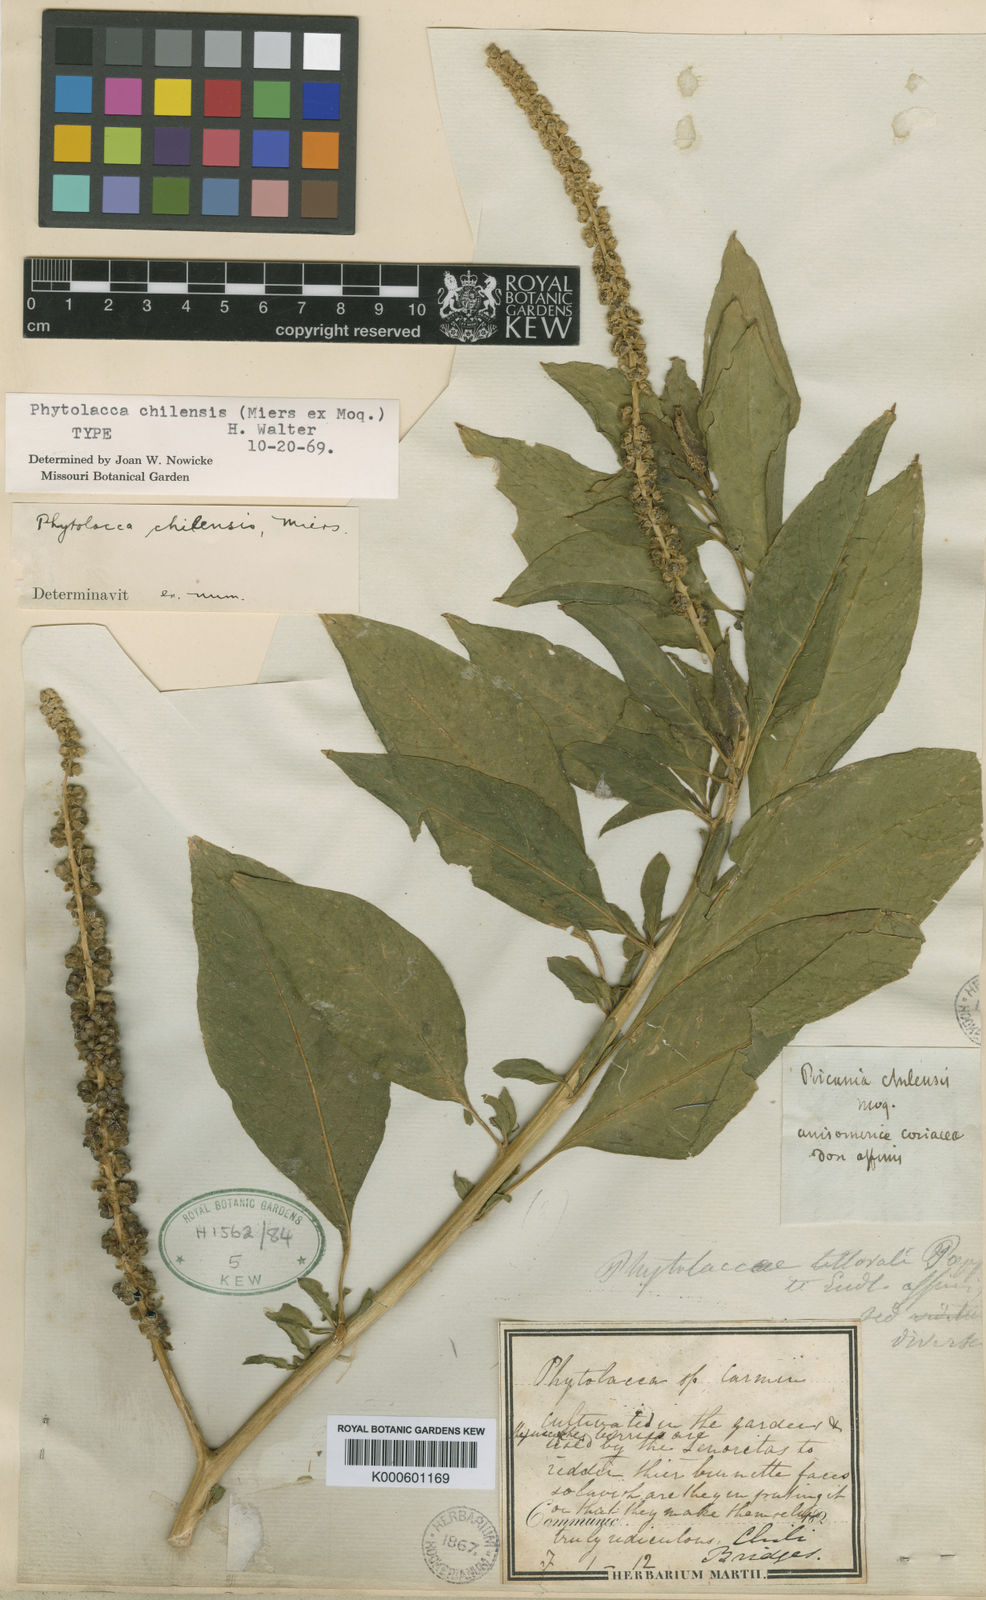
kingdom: Plantae
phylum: Tracheophyta
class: Magnoliopsida
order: Caryophyllales
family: Phytolaccaceae
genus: Phytolacca
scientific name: Phytolacca
